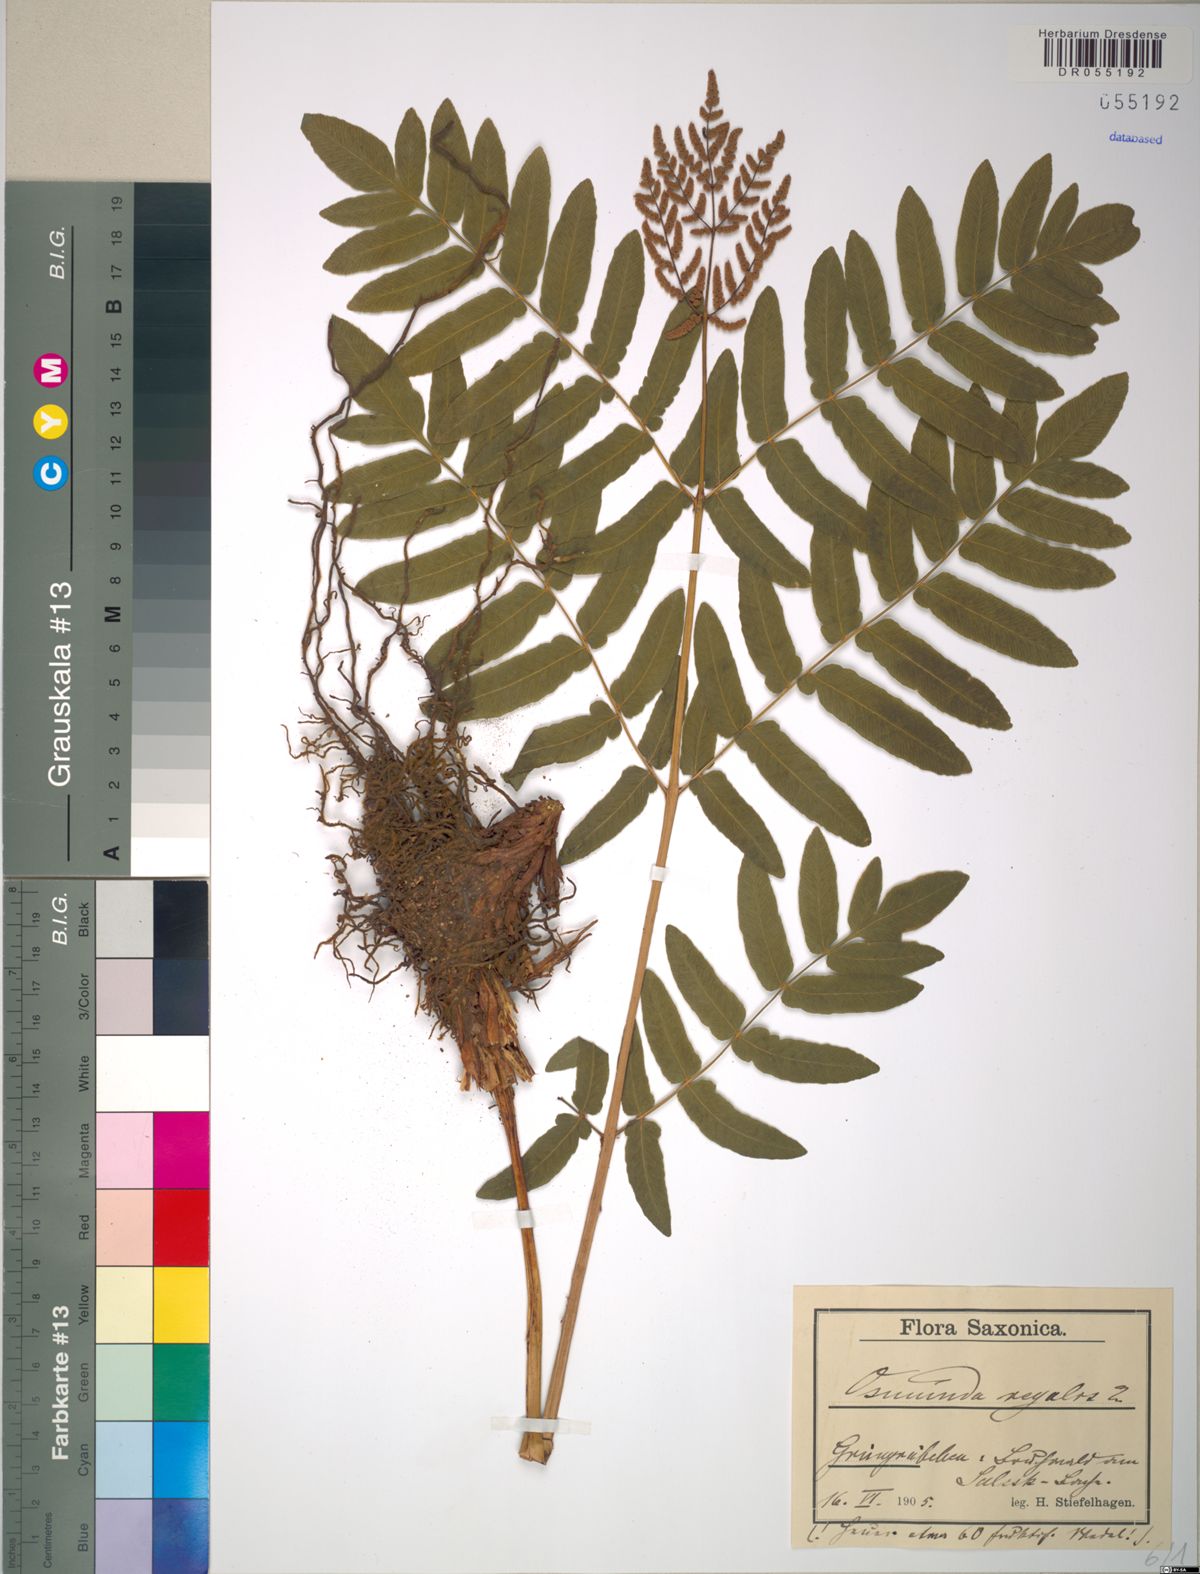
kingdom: Plantae
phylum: Tracheophyta
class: Polypodiopsida
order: Osmundales
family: Osmundaceae
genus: Osmunda
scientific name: Osmunda regalis
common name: Royal fern
